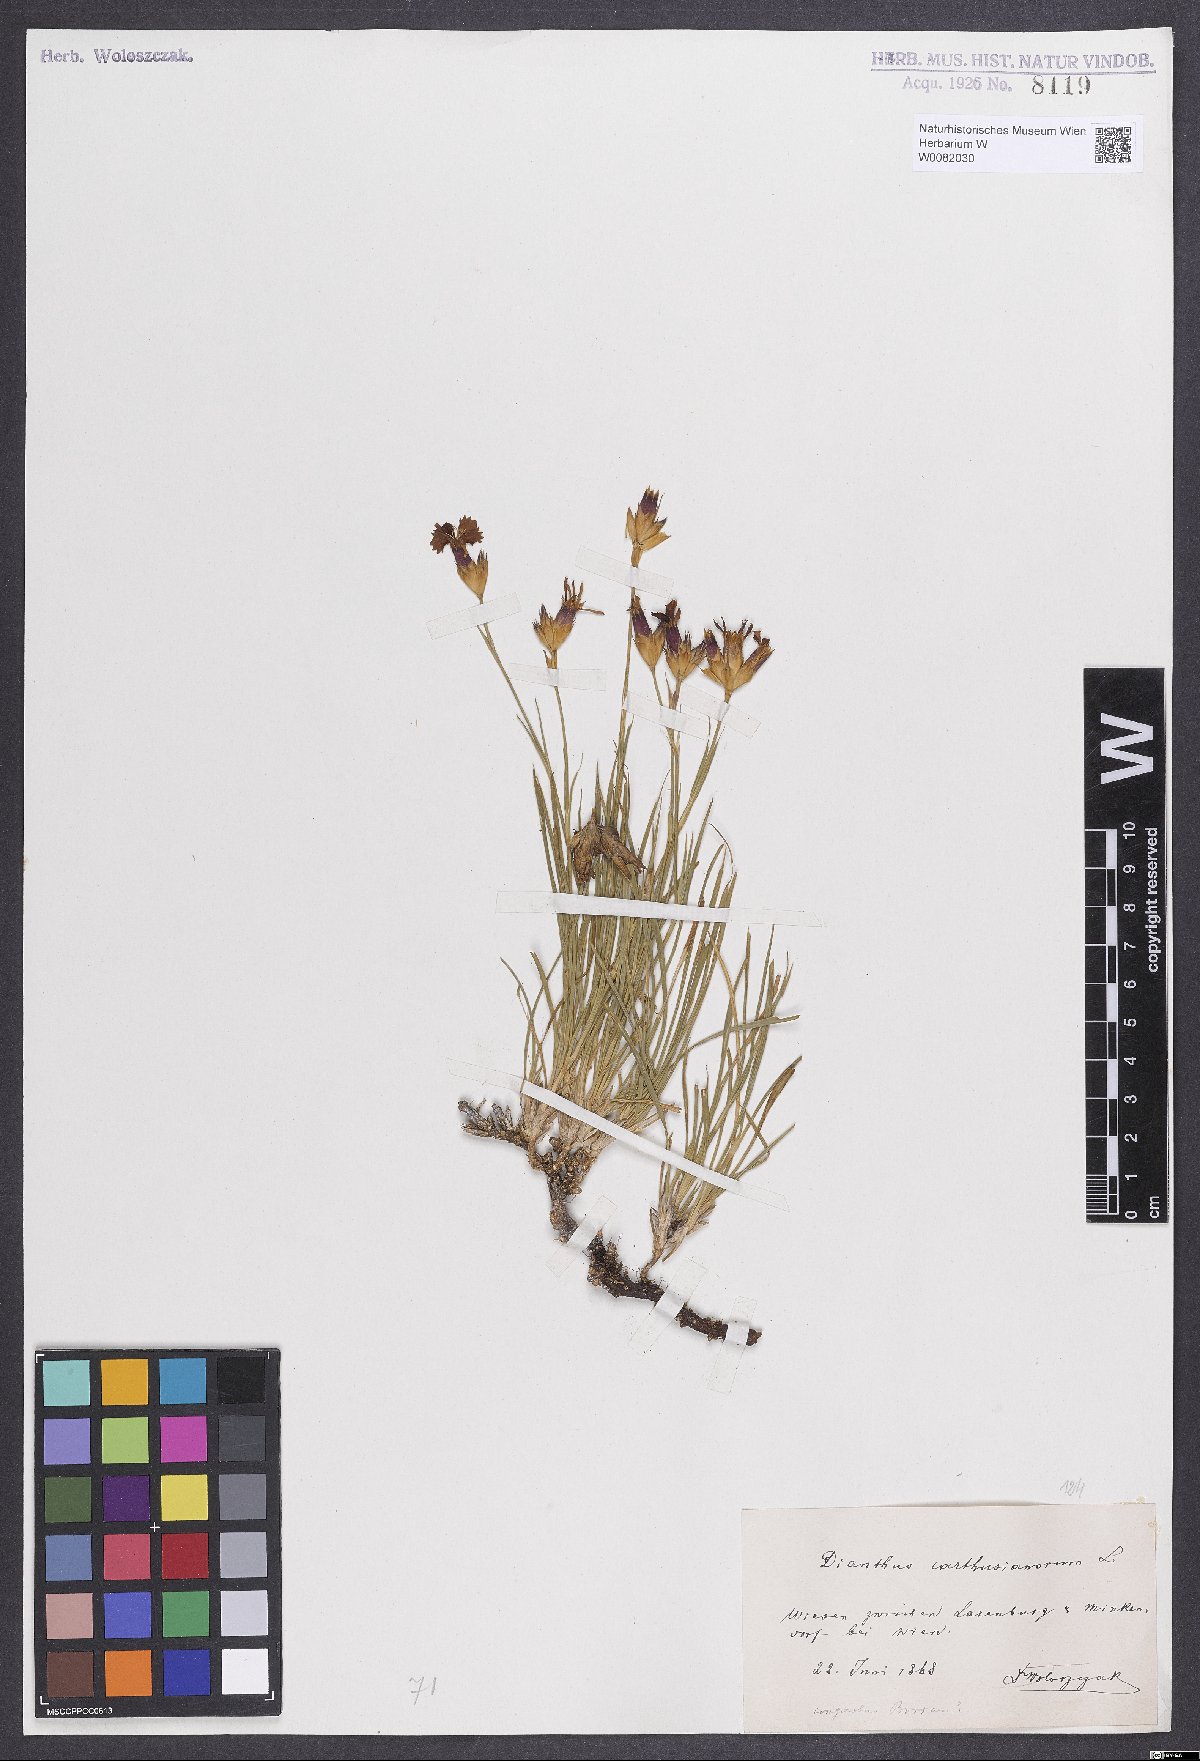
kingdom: Plantae
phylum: Tracheophyta
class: Magnoliopsida
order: Caryophyllales
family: Caryophyllaceae
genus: Dianthus
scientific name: Dianthus carthusianorum
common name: Carthusian pink
